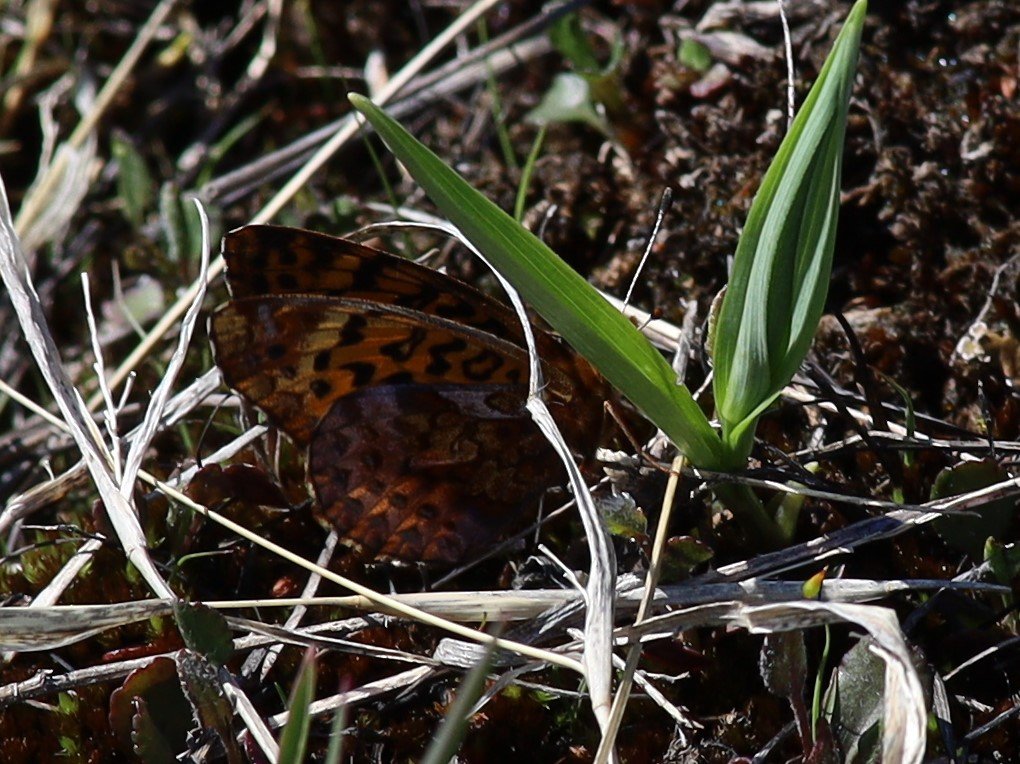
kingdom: Animalia
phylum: Arthropoda
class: Insecta
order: Lepidoptera
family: Nymphalidae
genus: Clossiana
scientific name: Clossiana toddi
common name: Meadow Fritillary
